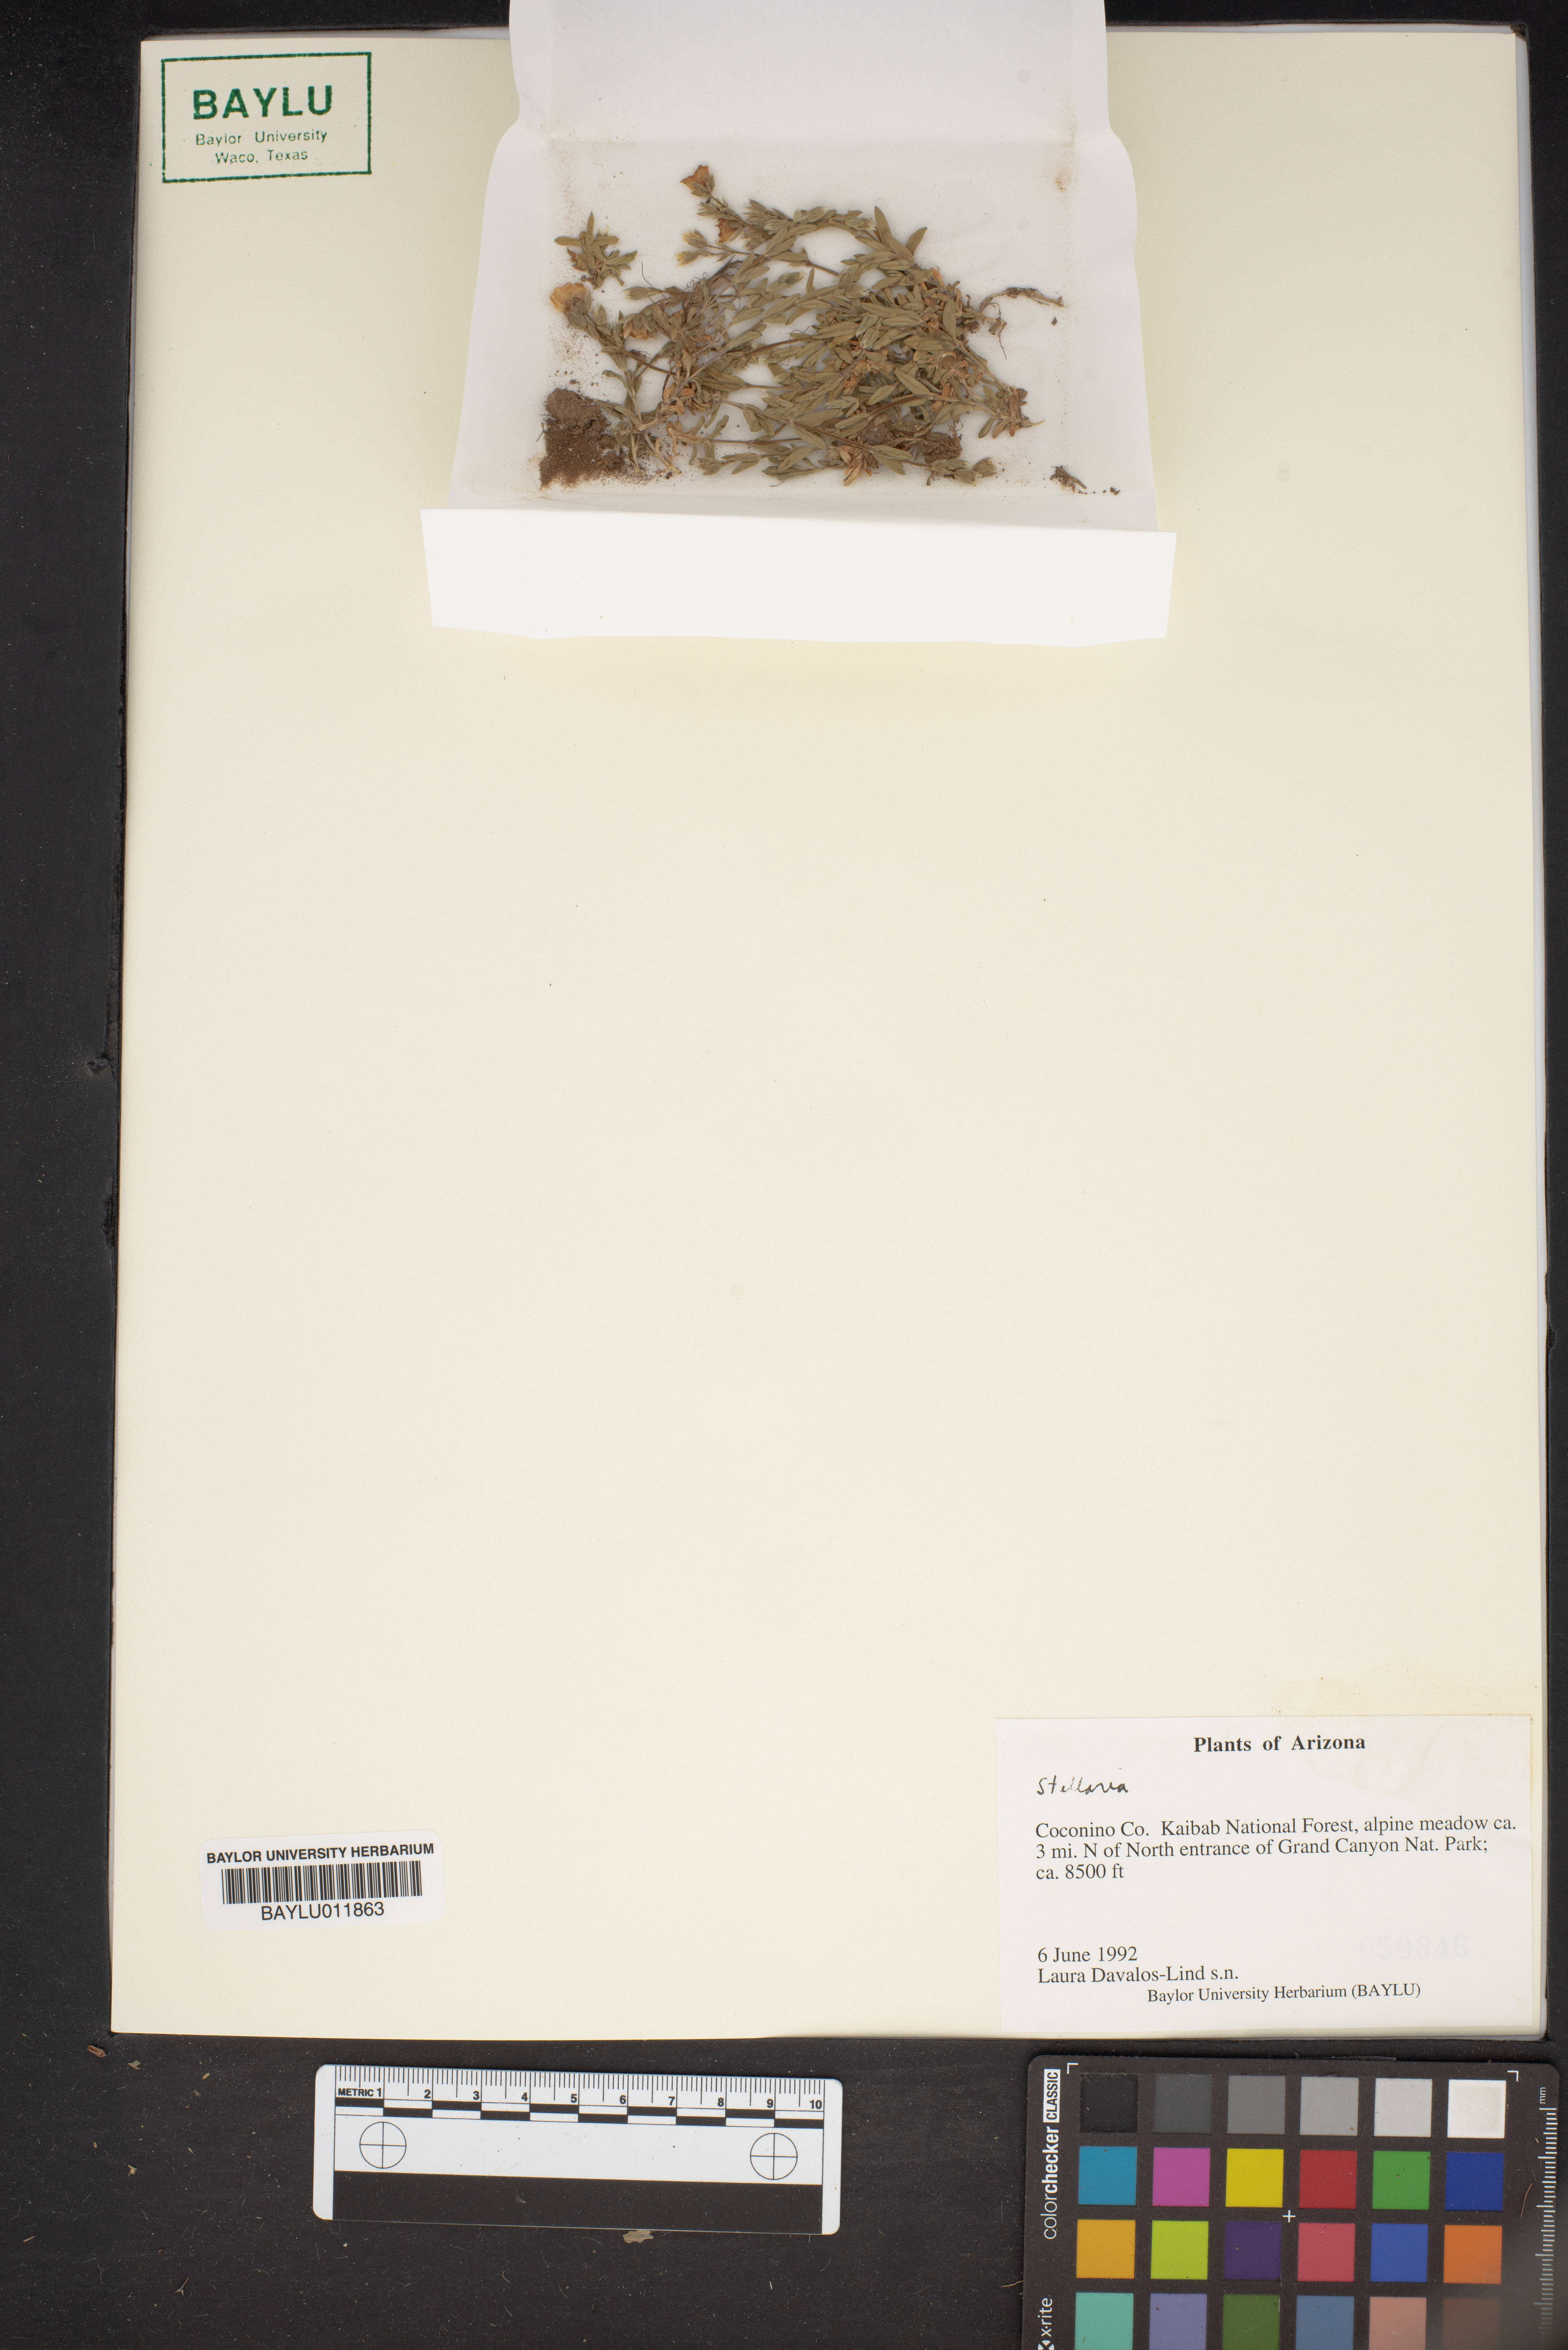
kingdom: Plantae
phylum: Tracheophyta
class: Magnoliopsida
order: Caryophyllales
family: Caryophyllaceae
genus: Stellaria
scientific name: Stellaria
